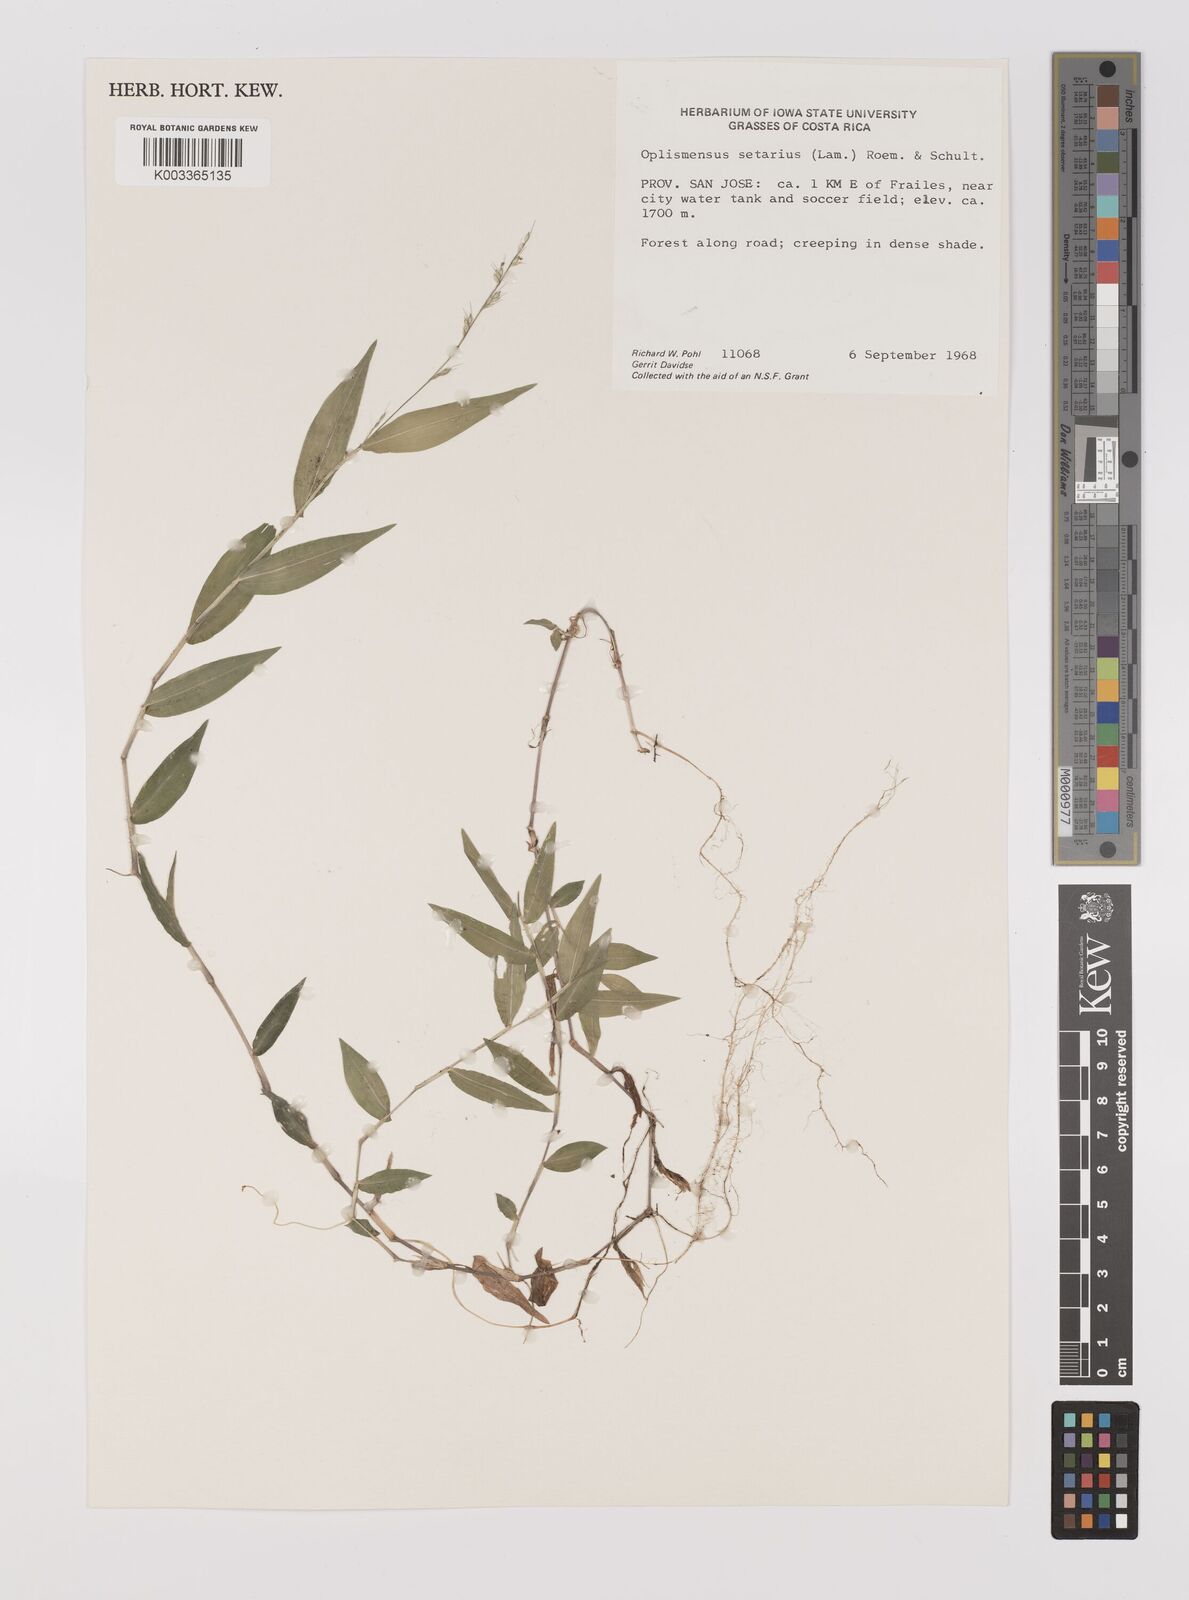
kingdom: Plantae
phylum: Tracheophyta
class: Liliopsida
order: Poales
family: Poaceae
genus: Oplismenus
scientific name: Oplismenus hirtellus
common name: Basketgrass
